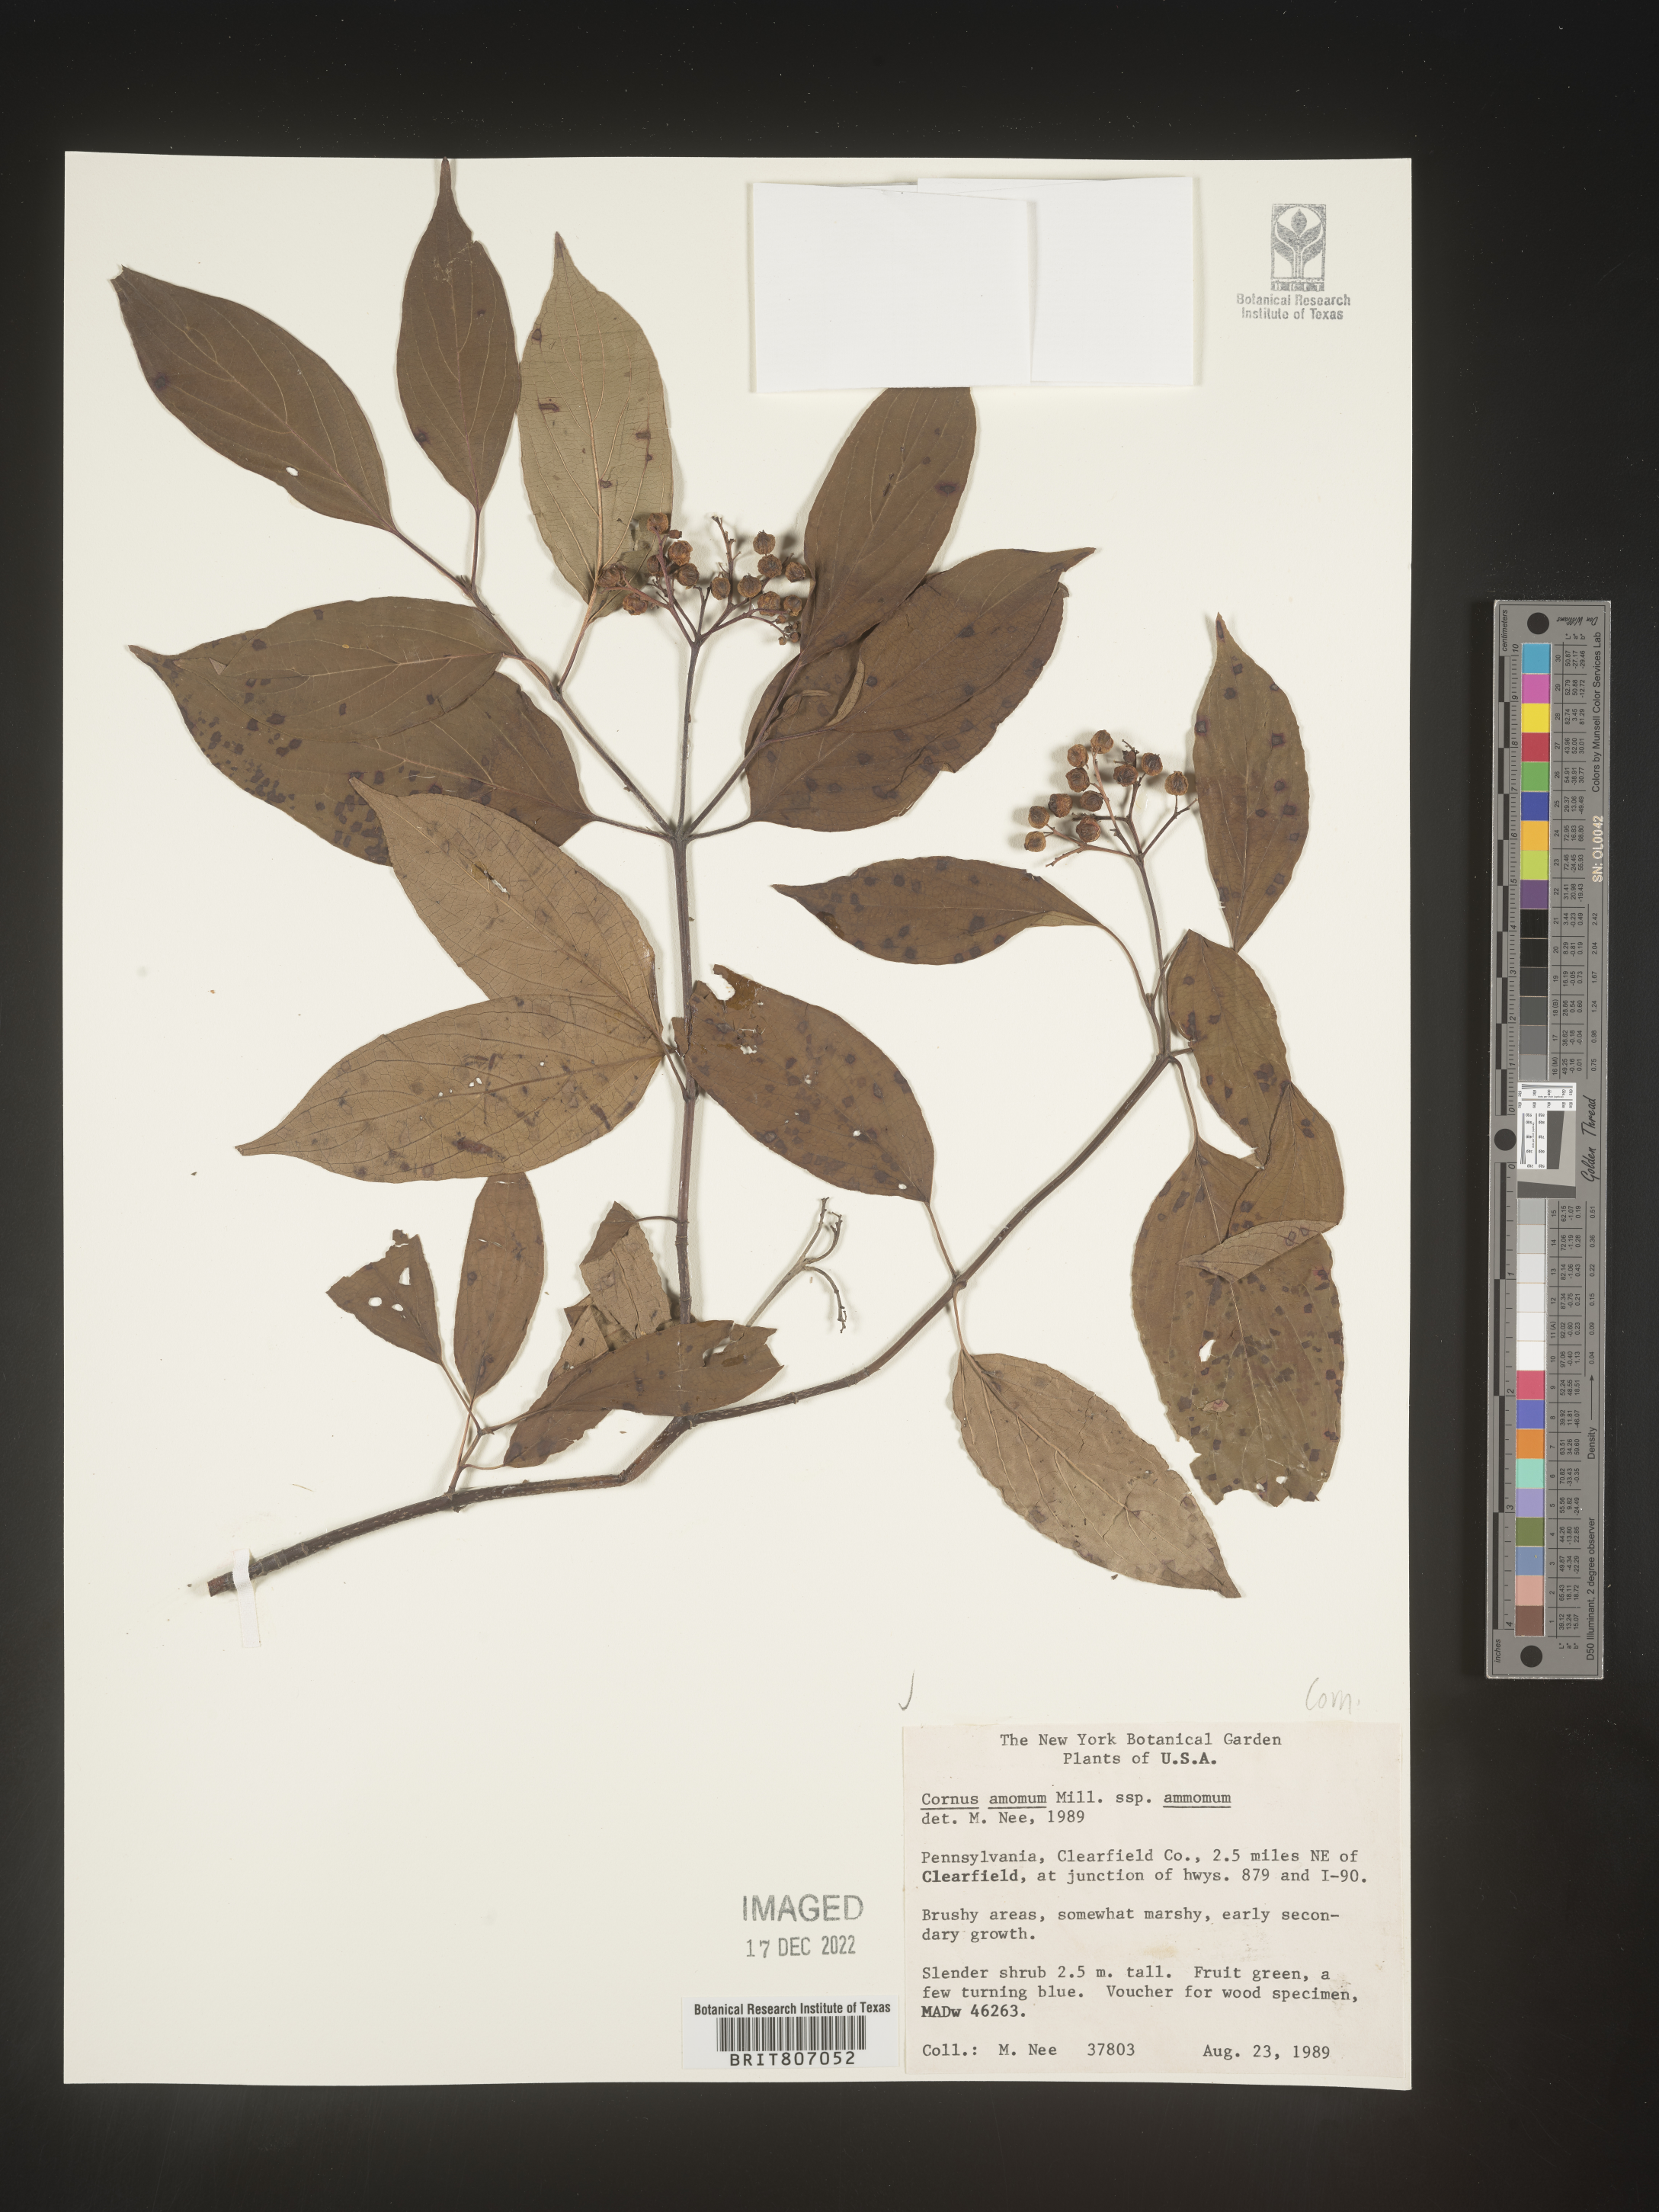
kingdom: Plantae
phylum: Tracheophyta
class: Magnoliopsida
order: Cornales
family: Cornaceae
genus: Cornus
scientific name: Cornus amomum
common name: Silky dogwood
